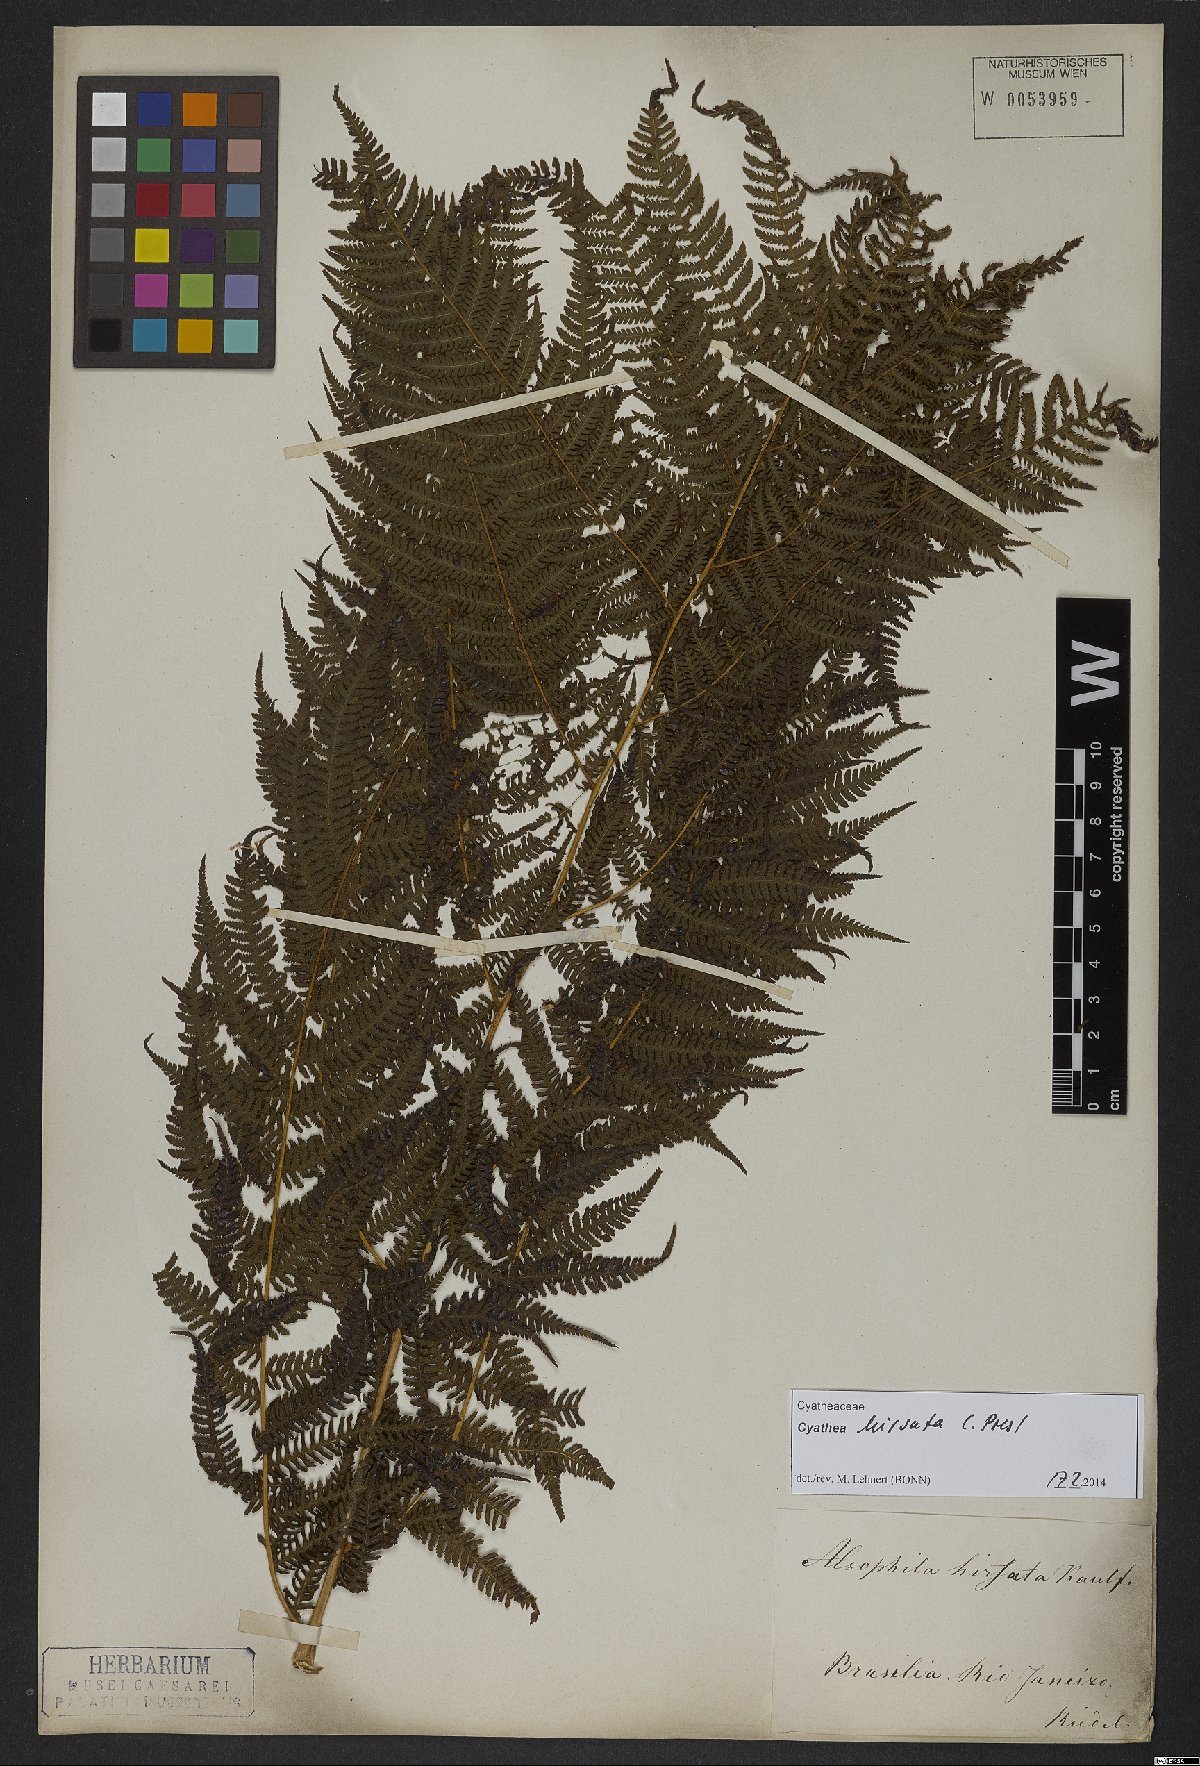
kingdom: Plantae
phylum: Tracheophyta
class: Polypodiopsida
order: Cyatheales
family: Cyatheaceae
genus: Cyathea
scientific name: Cyathea hirsuta
